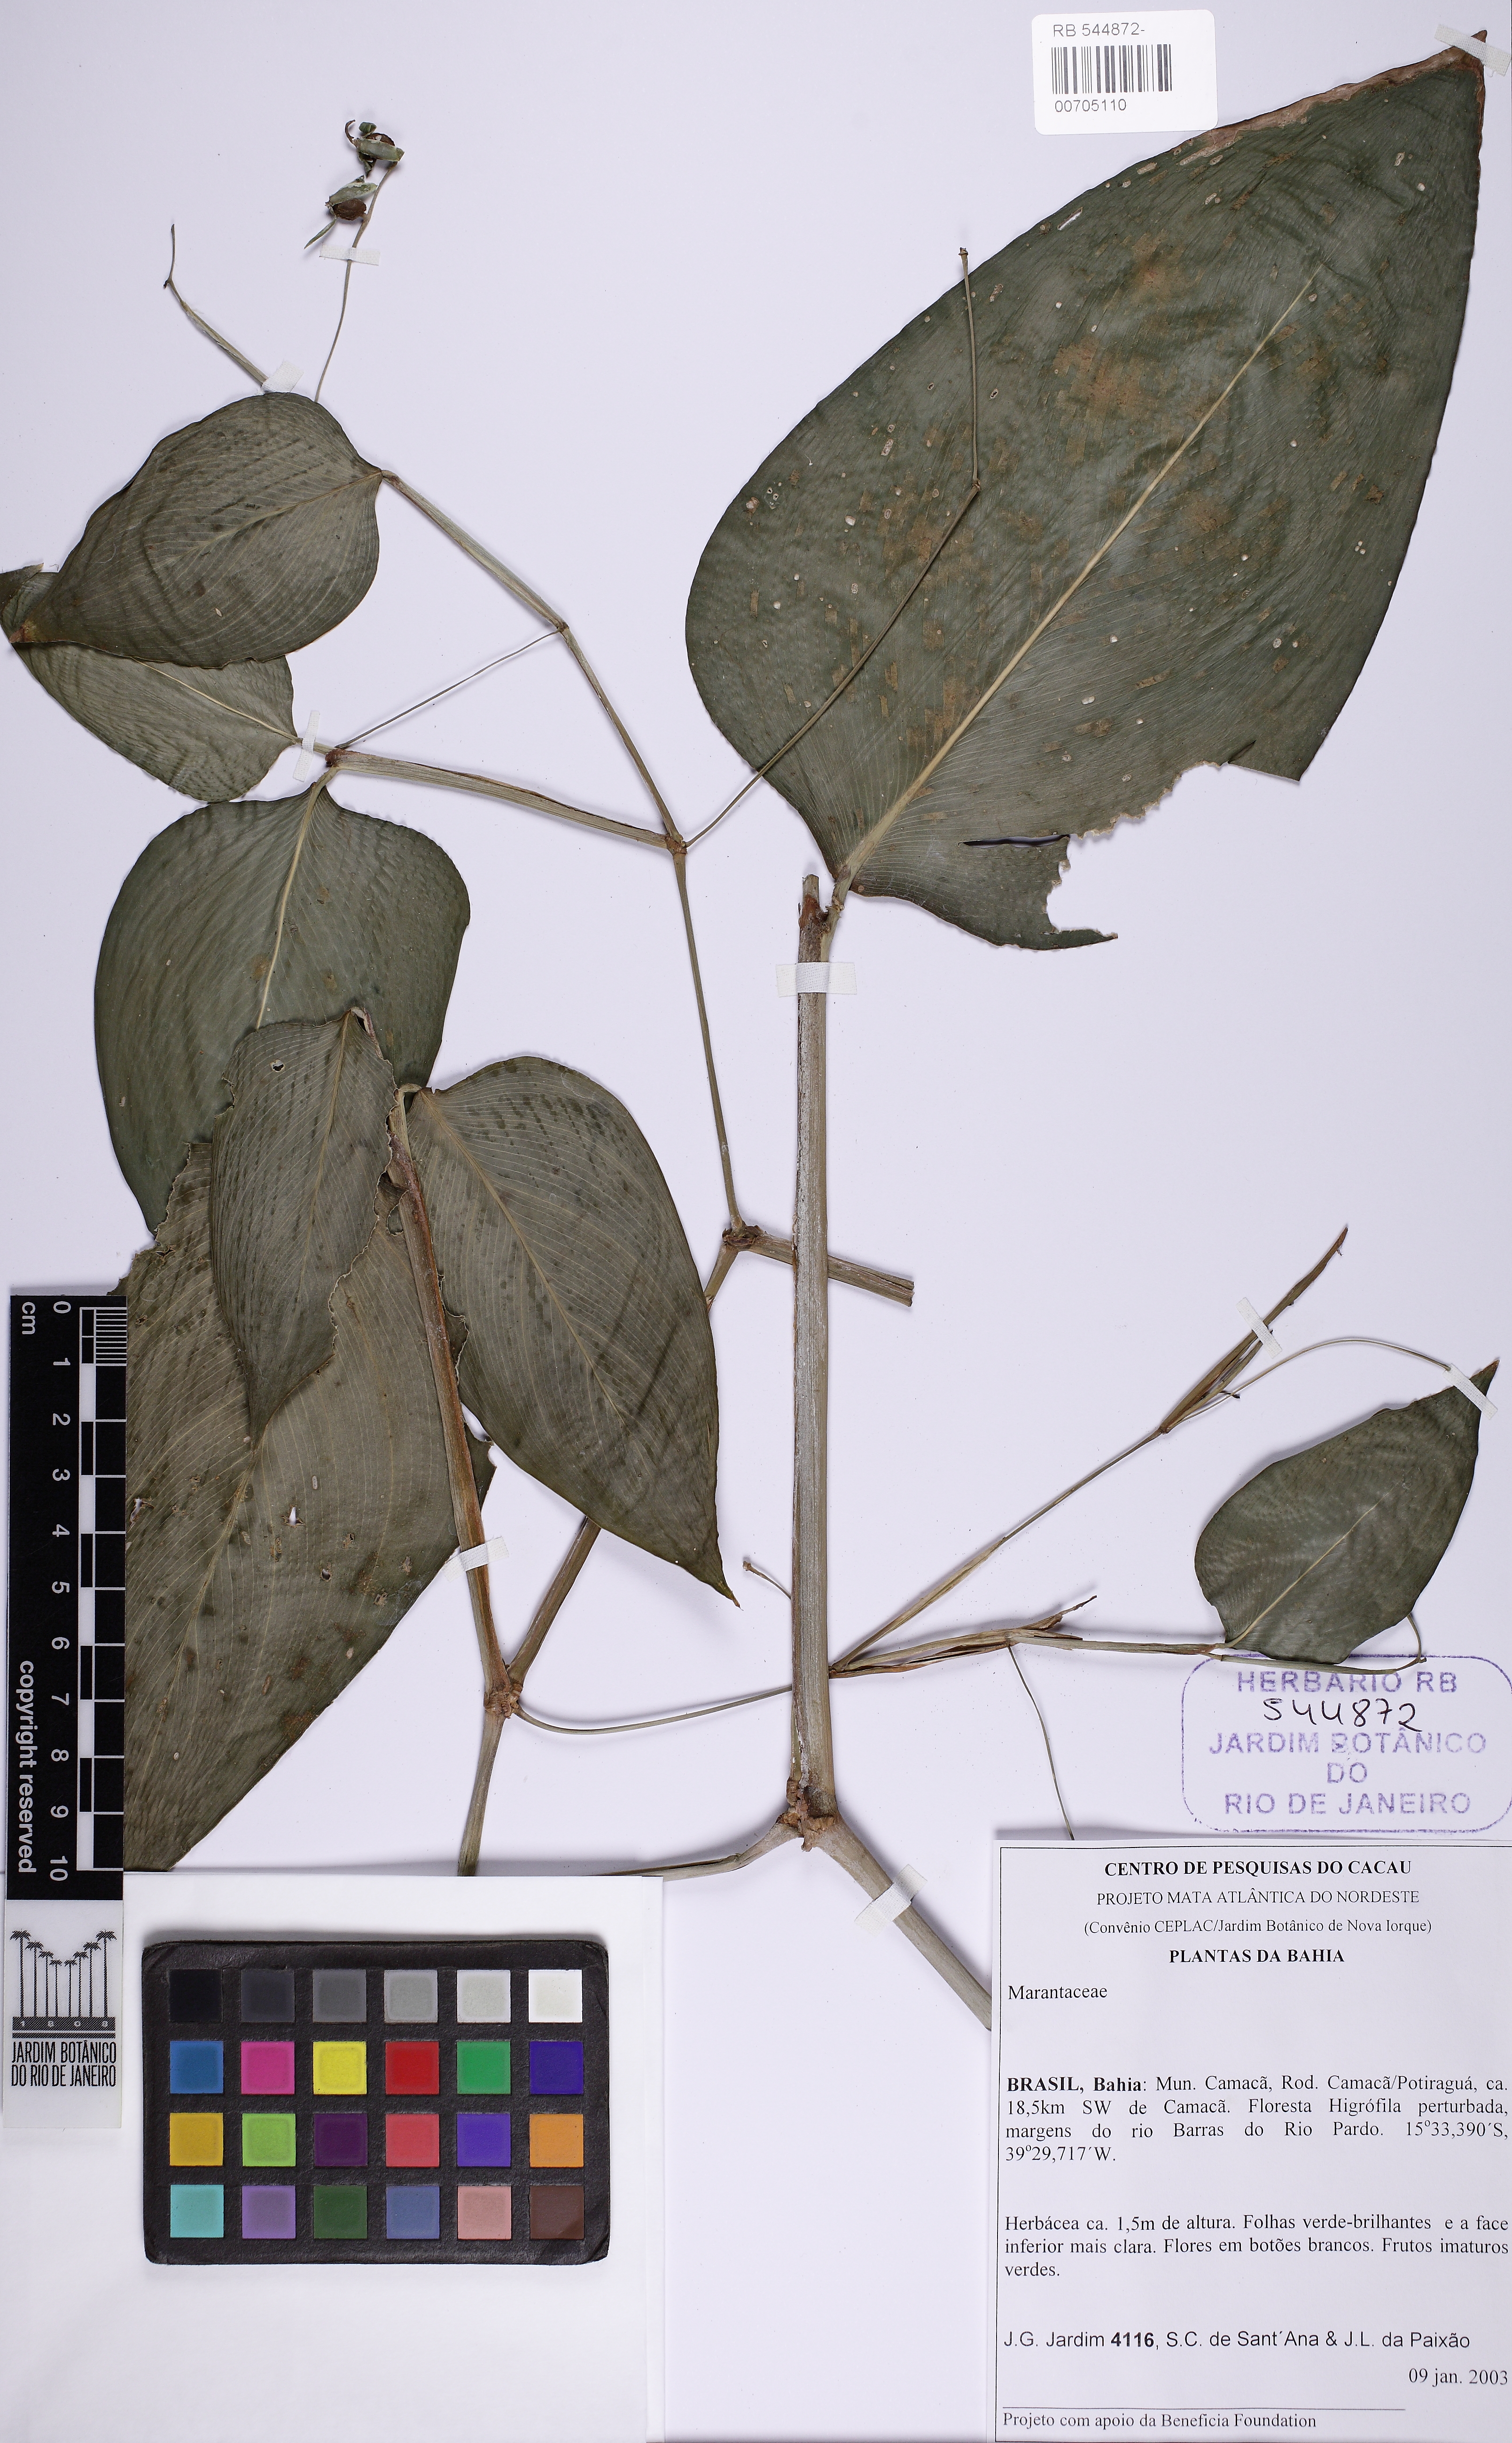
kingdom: Plantae
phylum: Tracheophyta
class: Liliopsida
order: Zingiberales
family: Marantaceae
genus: Maranta
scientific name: Maranta protracta
